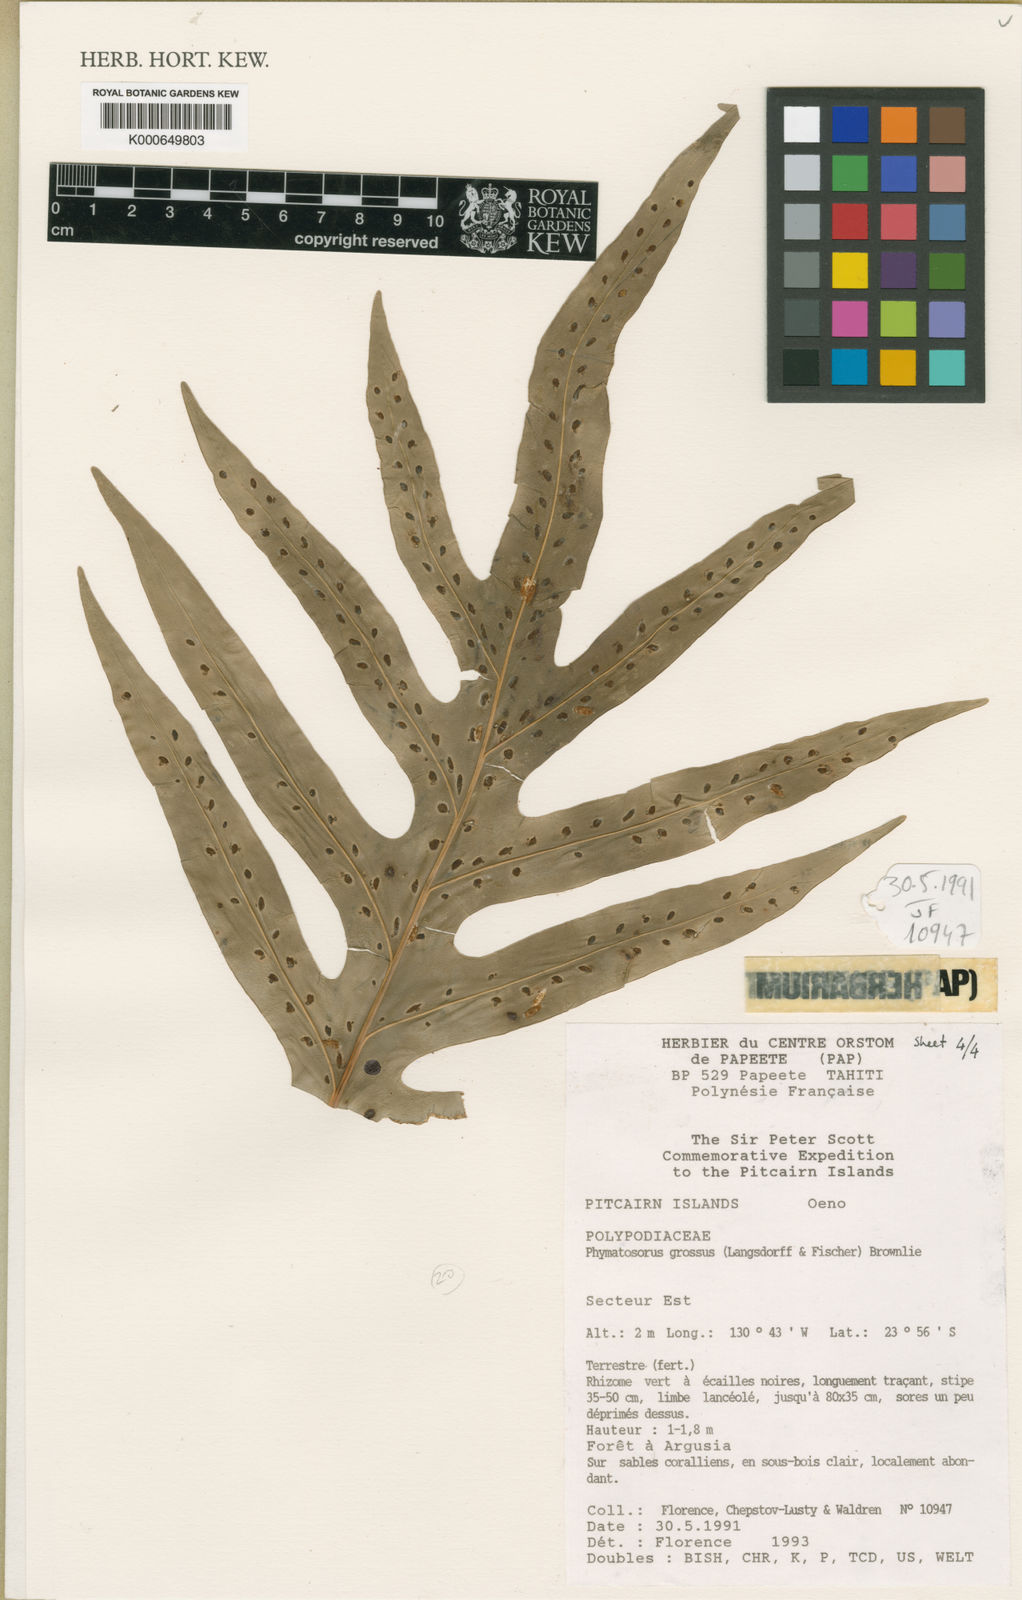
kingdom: Plantae
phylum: Tracheophyta
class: Polypodiopsida
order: Polypodiales
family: Polypodiaceae
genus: Microsorum
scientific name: Microsorum grossum
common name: Musk fern
